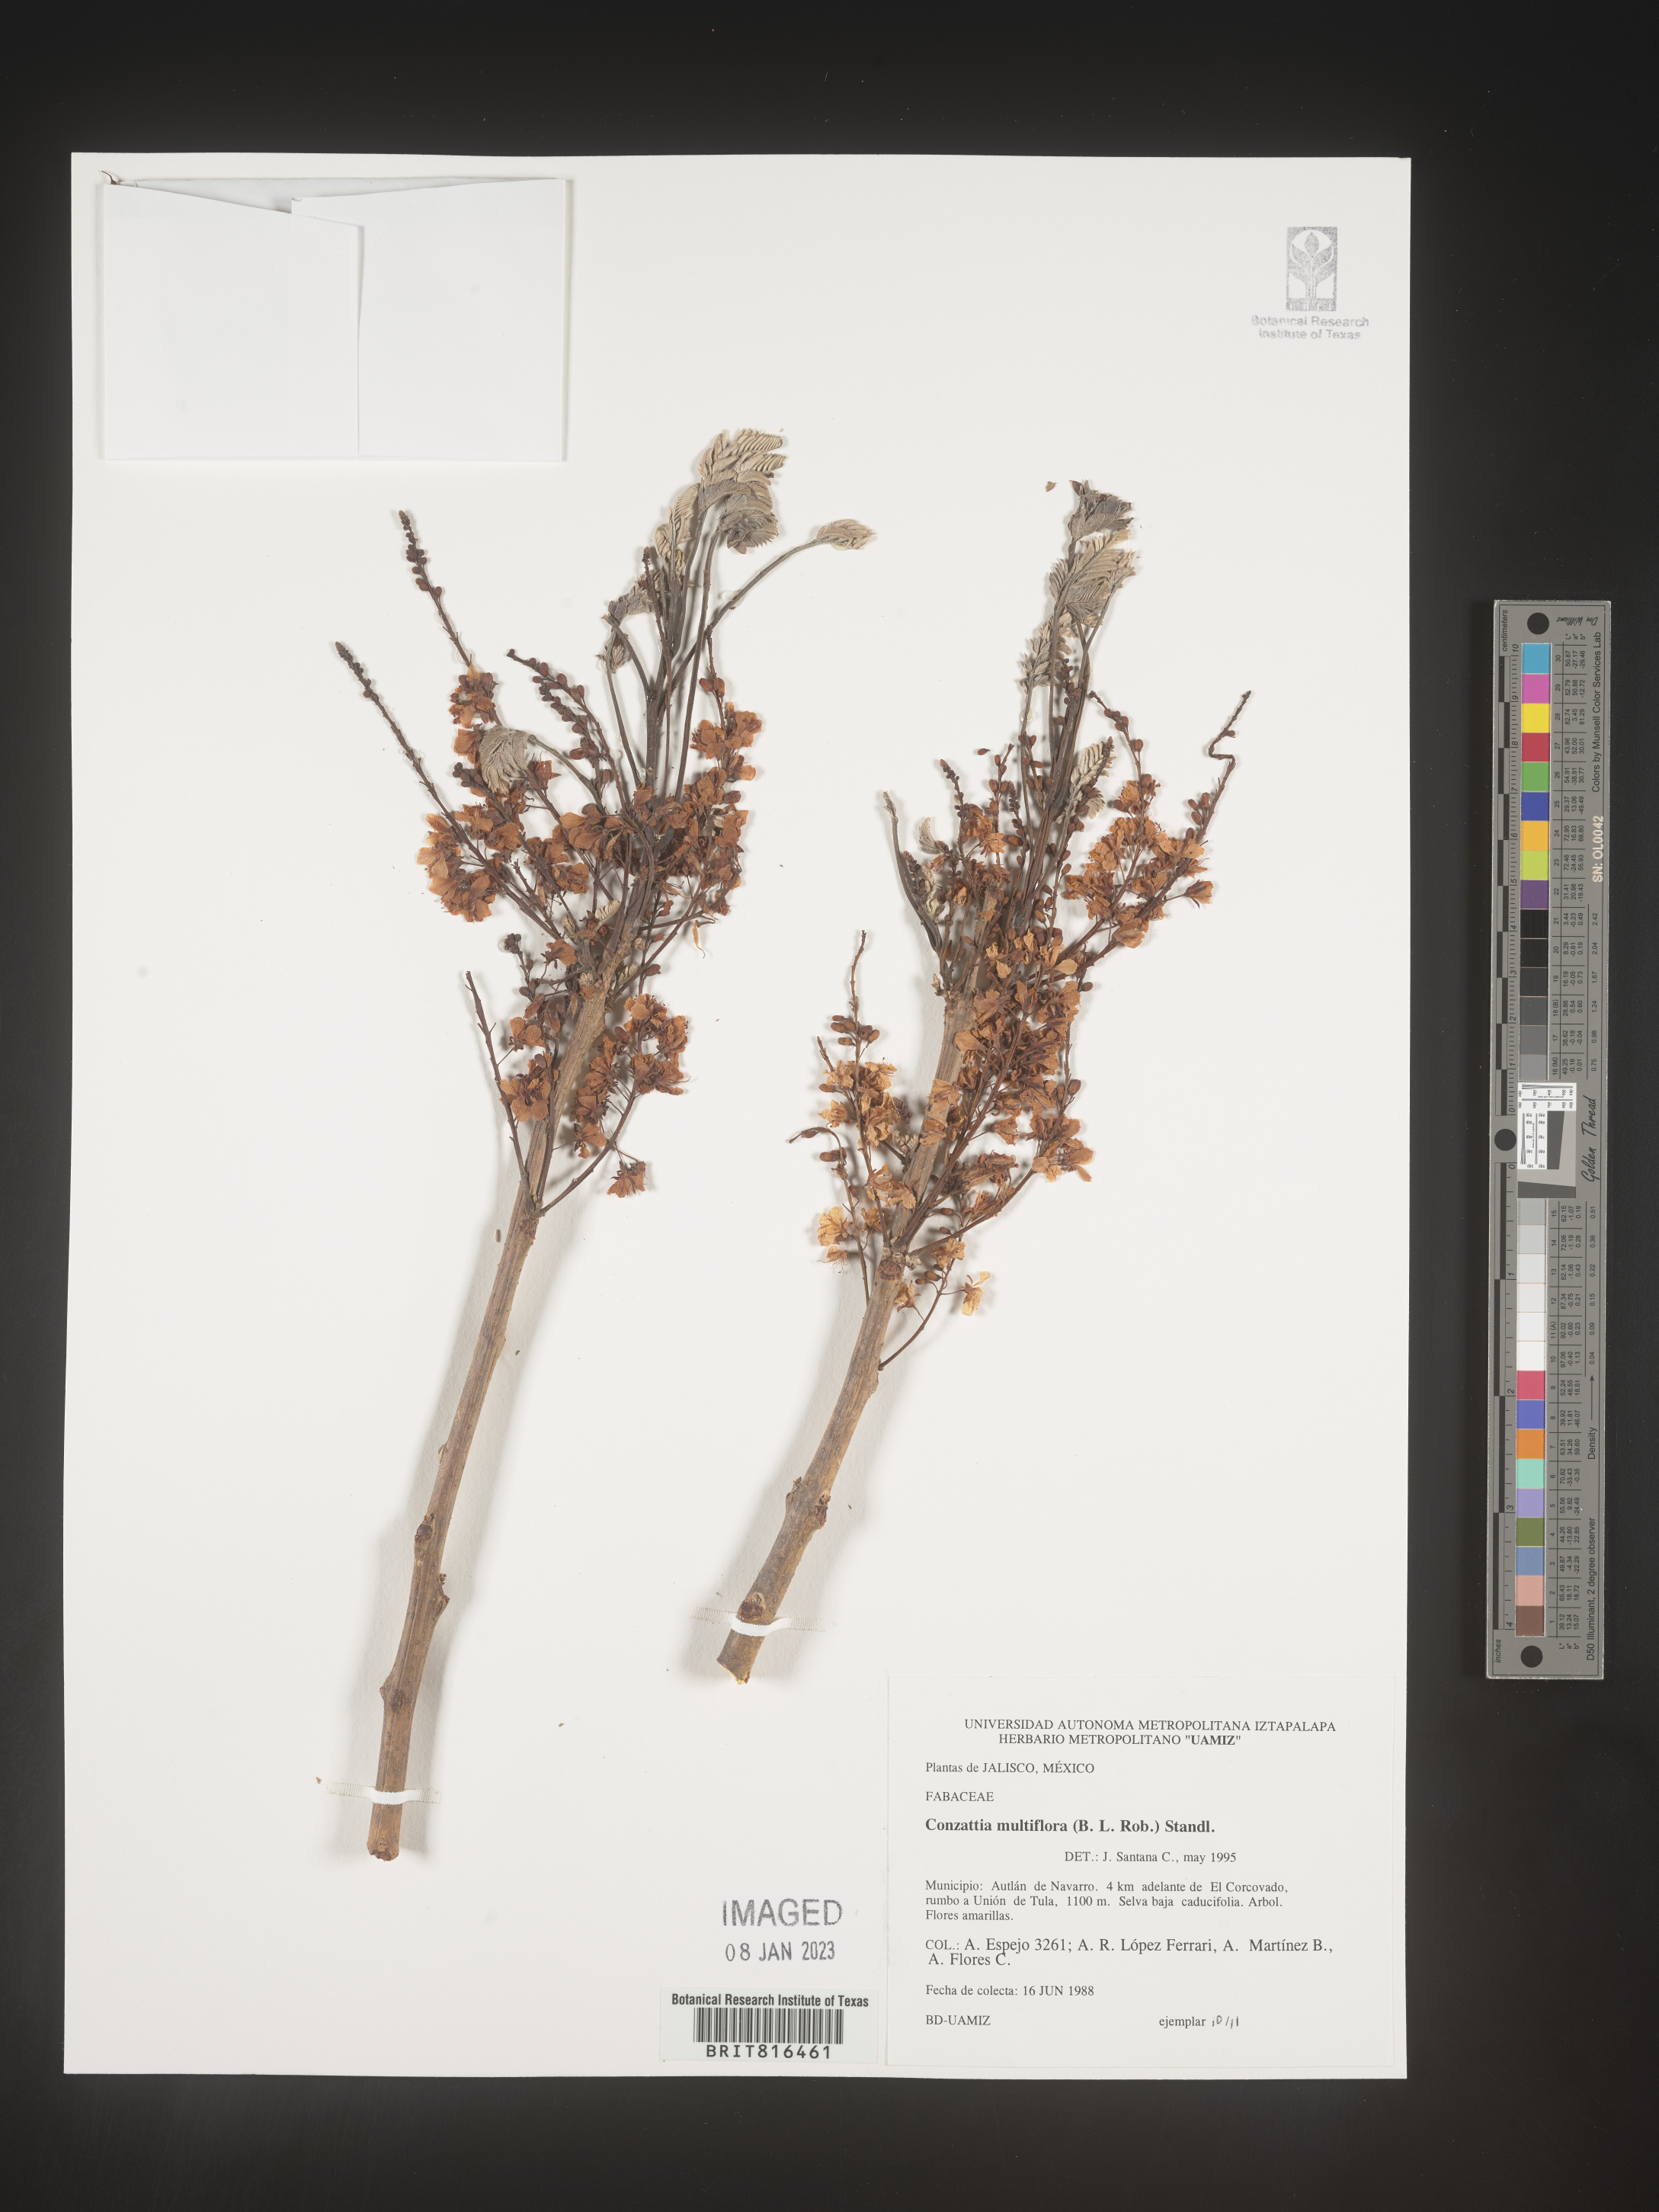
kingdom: Plantae
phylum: Tracheophyta
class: Magnoliopsida
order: Fabales
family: Fabaceae
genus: Conzattia
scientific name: Conzattia
